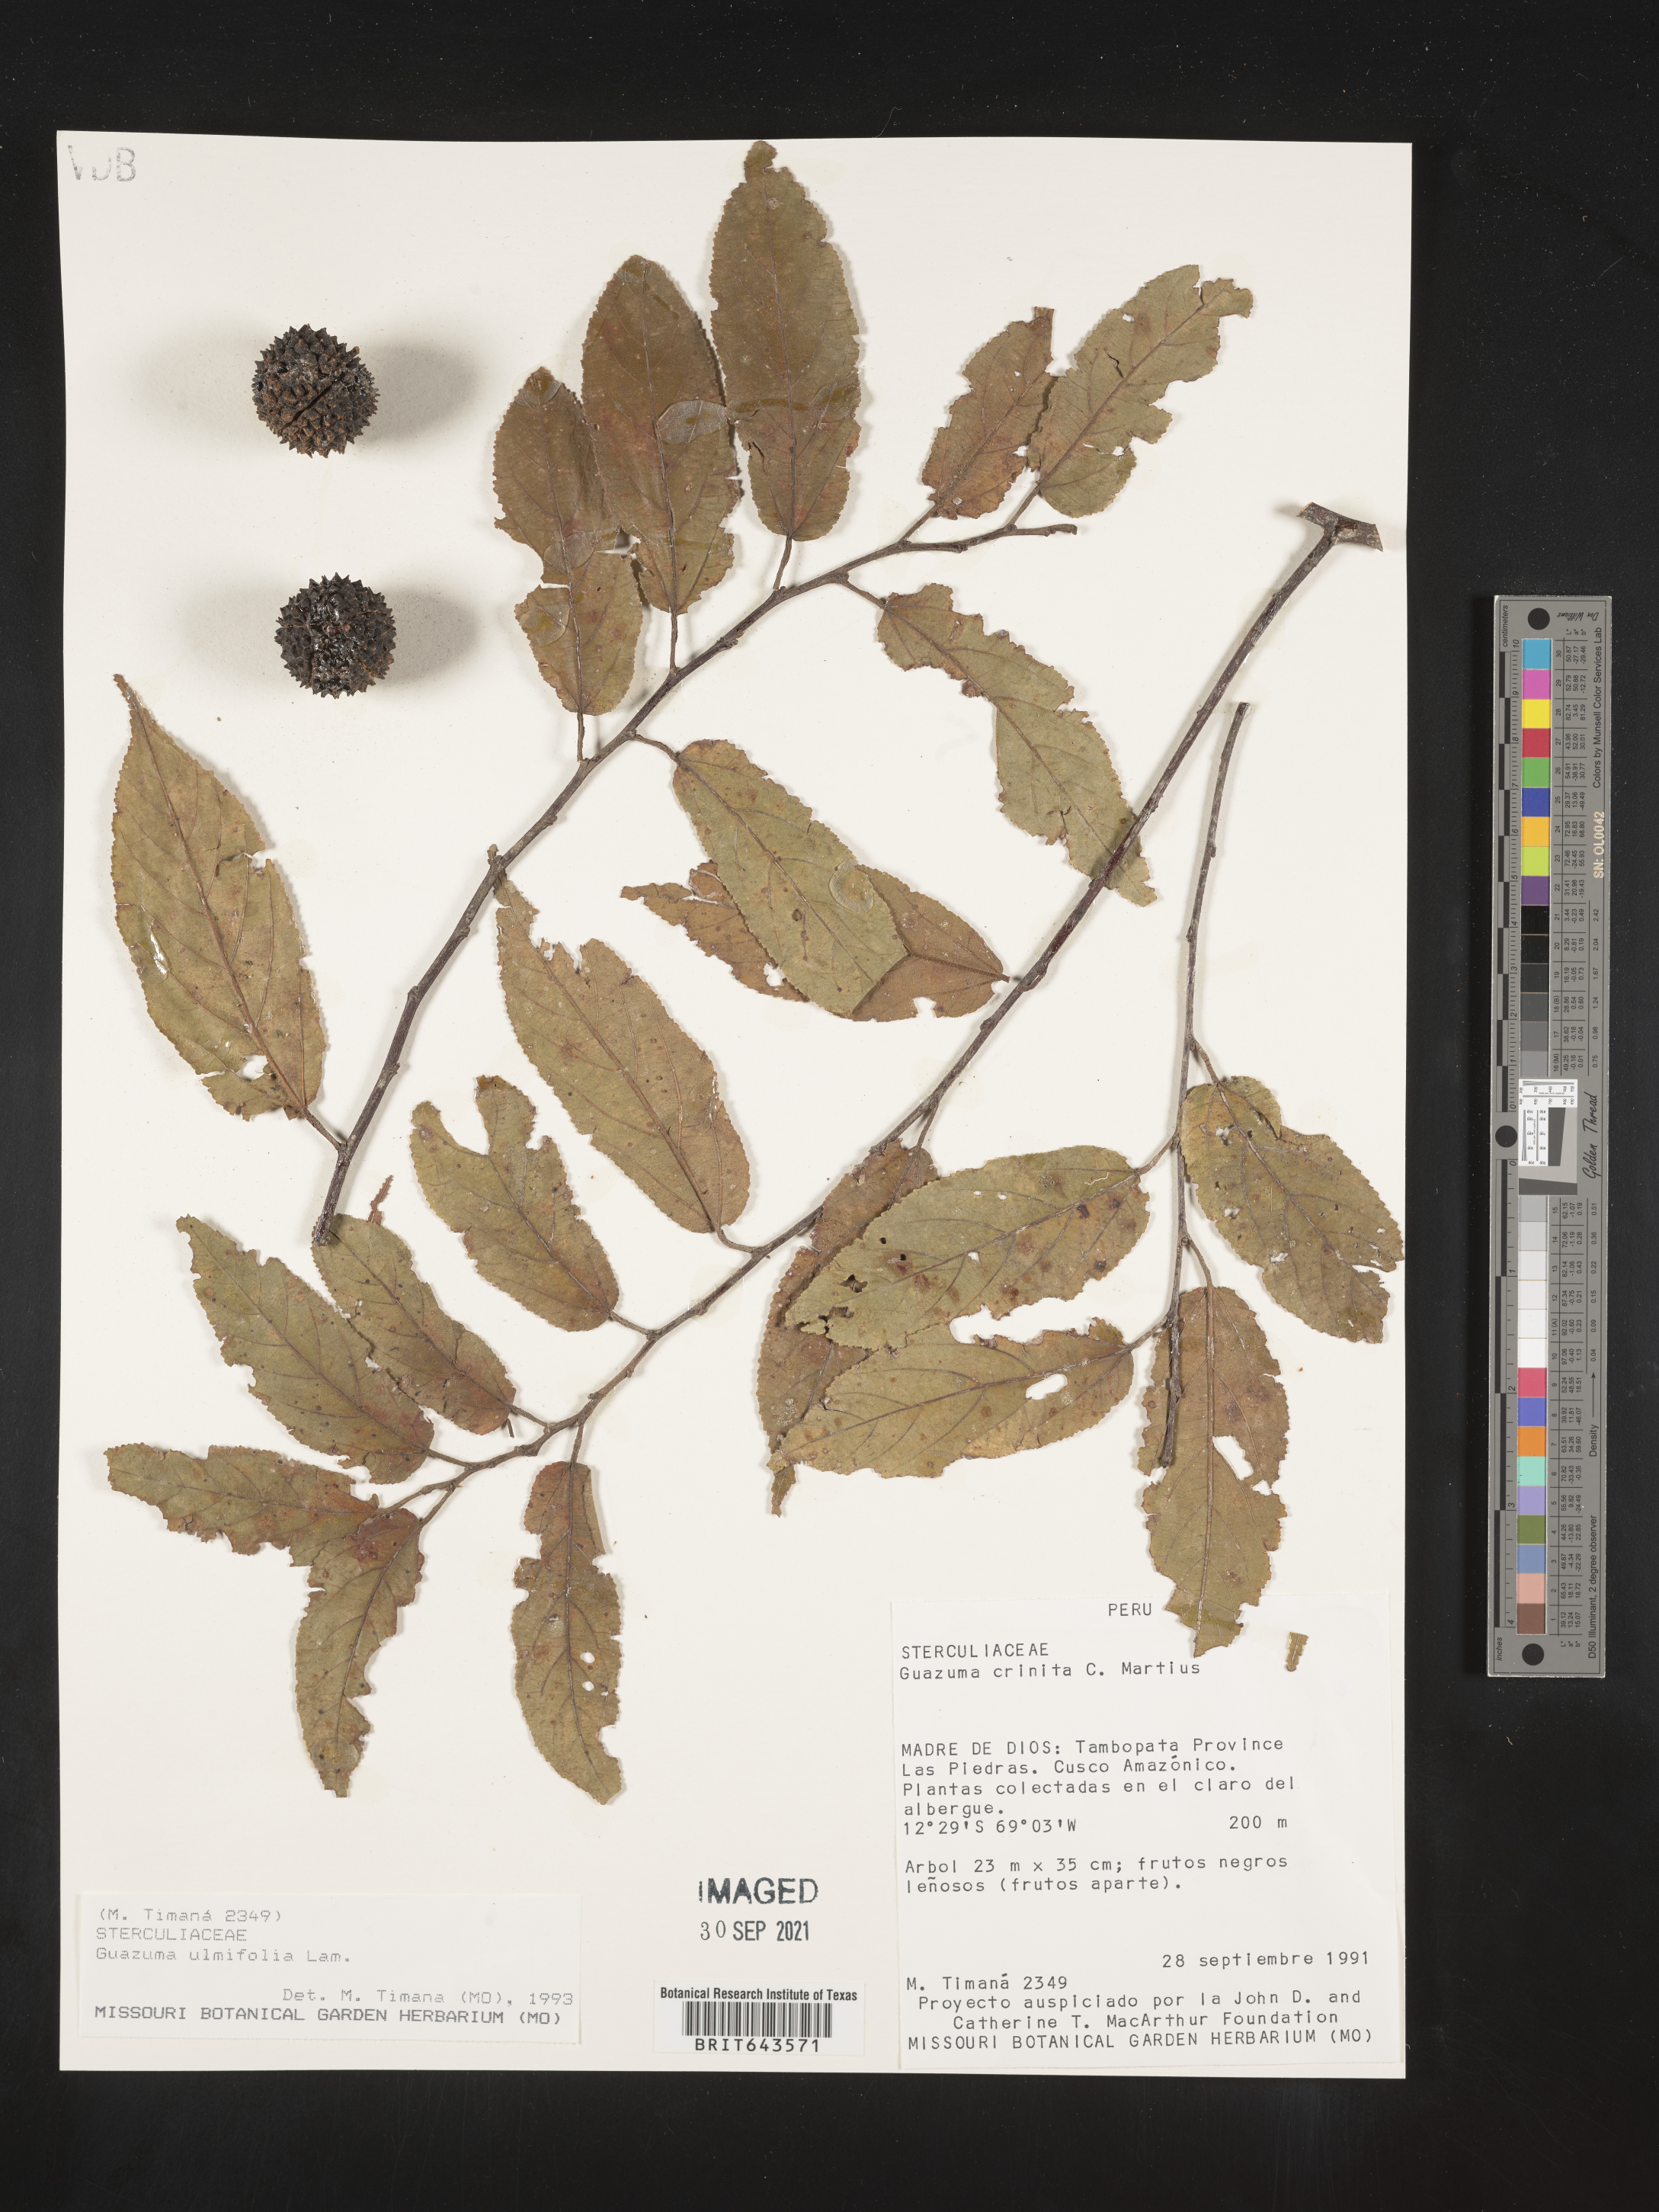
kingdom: Plantae
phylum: Tracheophyta
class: Magnoliopsida
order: Malvales
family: Malvaceae
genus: Guazuma
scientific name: Guazuma
